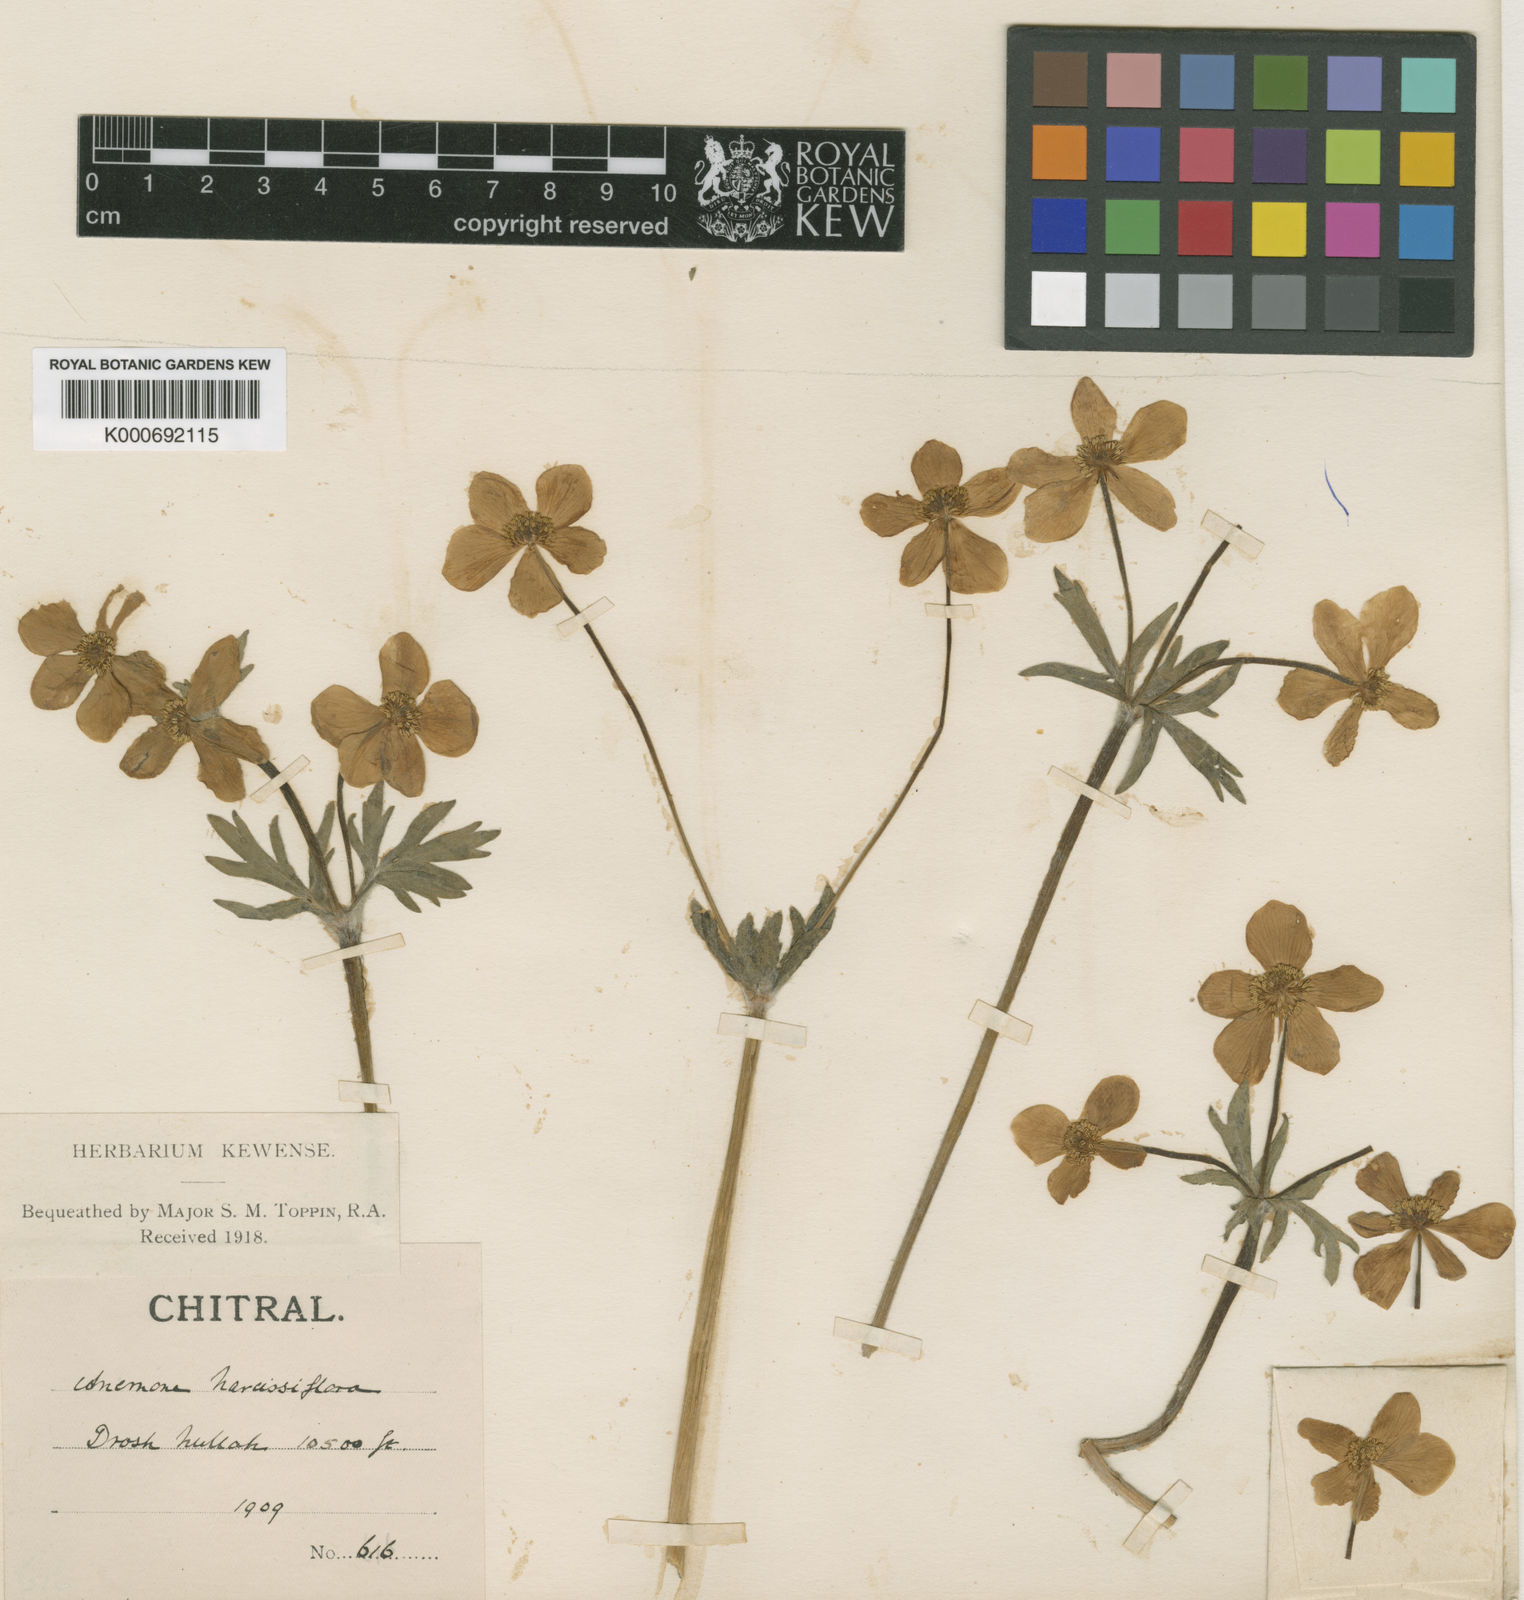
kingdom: Plantae
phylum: Tracheophyta
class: Magnoliopsida
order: Ranunculales
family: Ranunculaceae
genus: Anemonastrum
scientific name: Anemonastrum narcissiflorum
